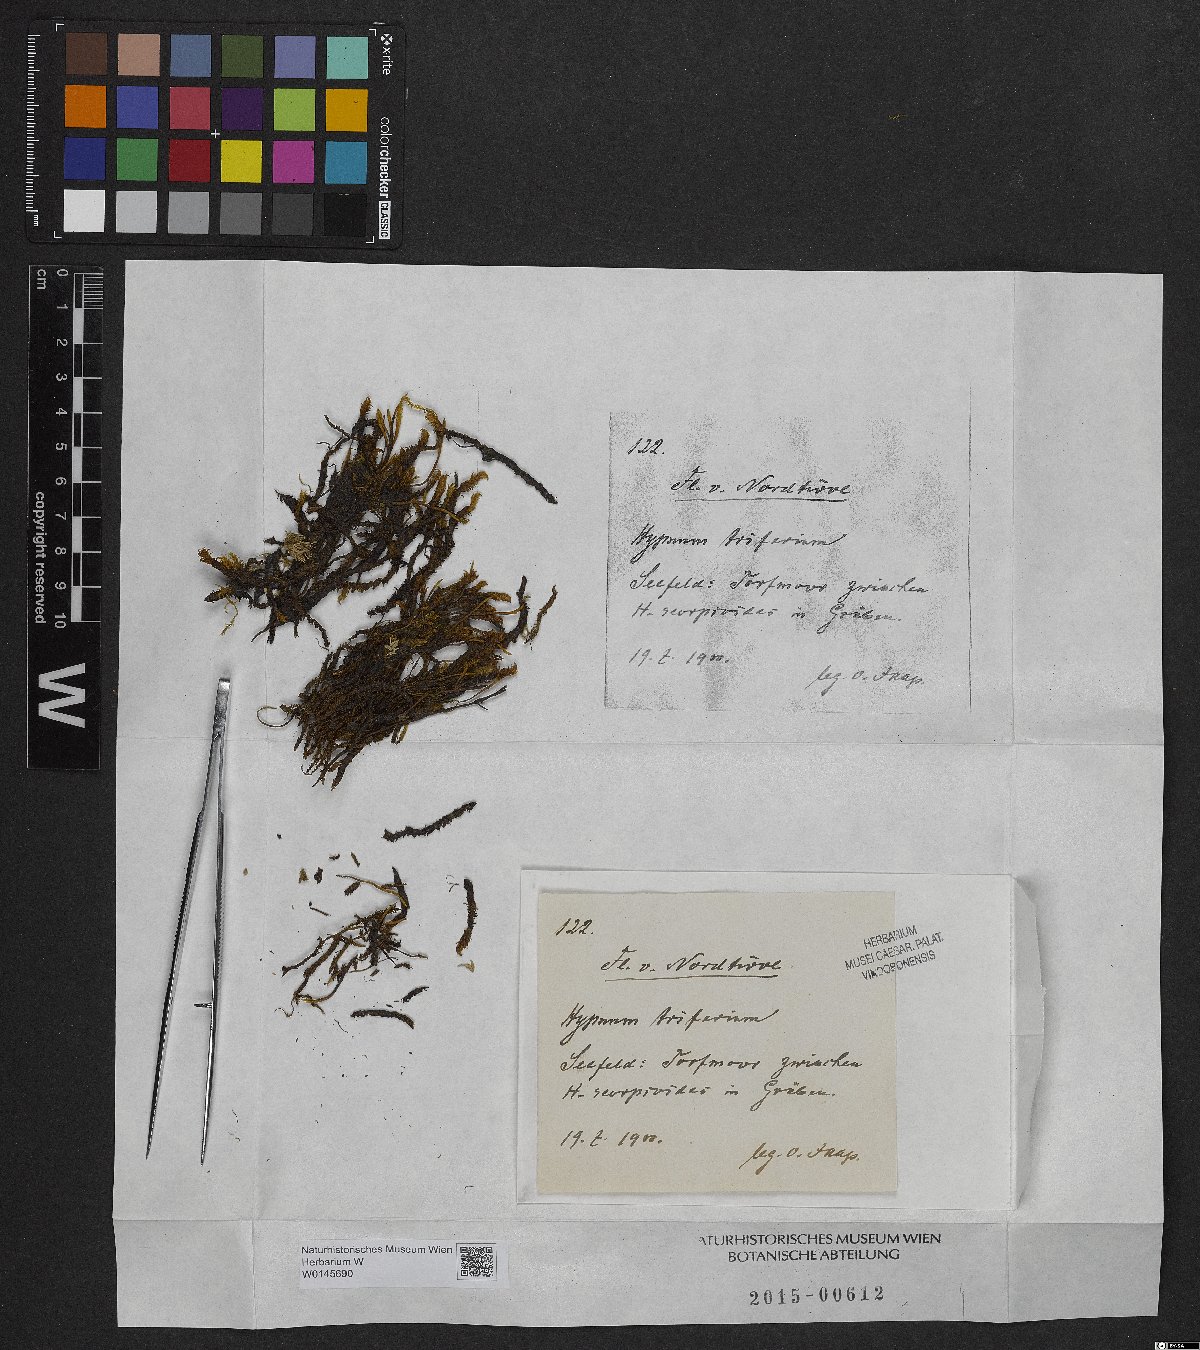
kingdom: Plantae
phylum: Bryophyta
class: Bryopsida
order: Hypnales
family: Amblystegiaceae
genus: Drepanocladus
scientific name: Drepanocladus trifarius
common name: Calliergon moss
